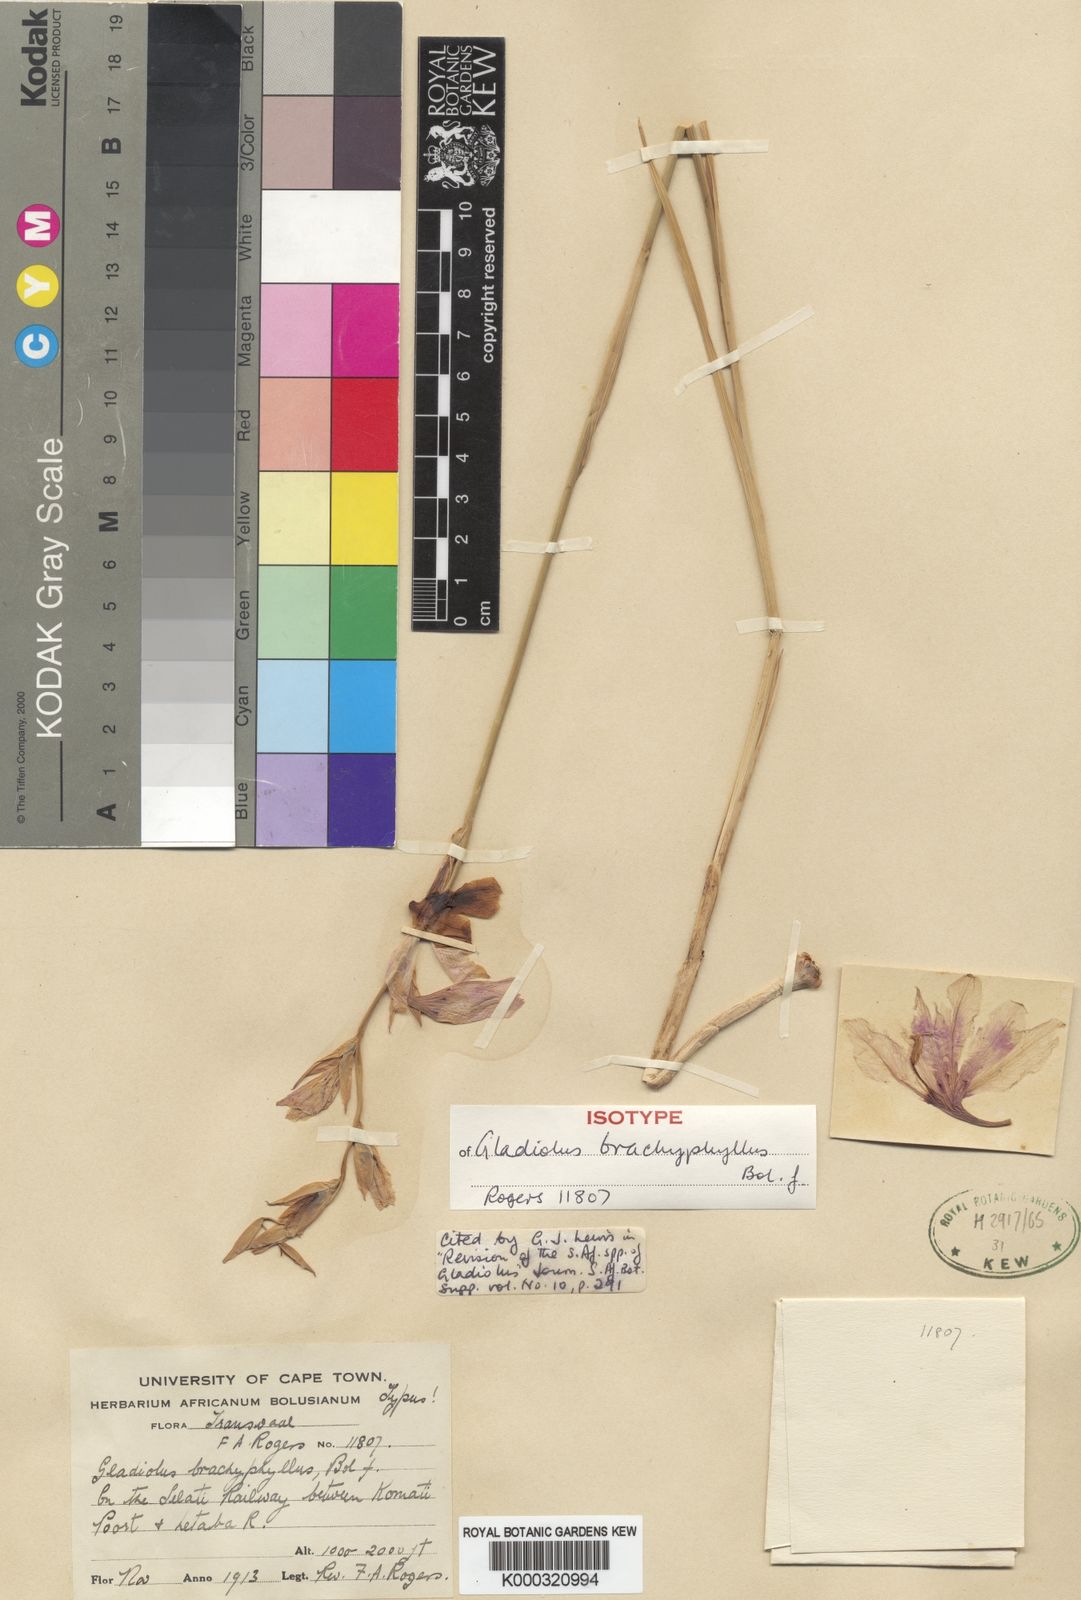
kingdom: Plantae
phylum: Tracheophyta
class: Liliopsida
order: Asparagales
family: Iridaceae
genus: Gladiolus
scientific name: Gladiolus brachyphyllus
